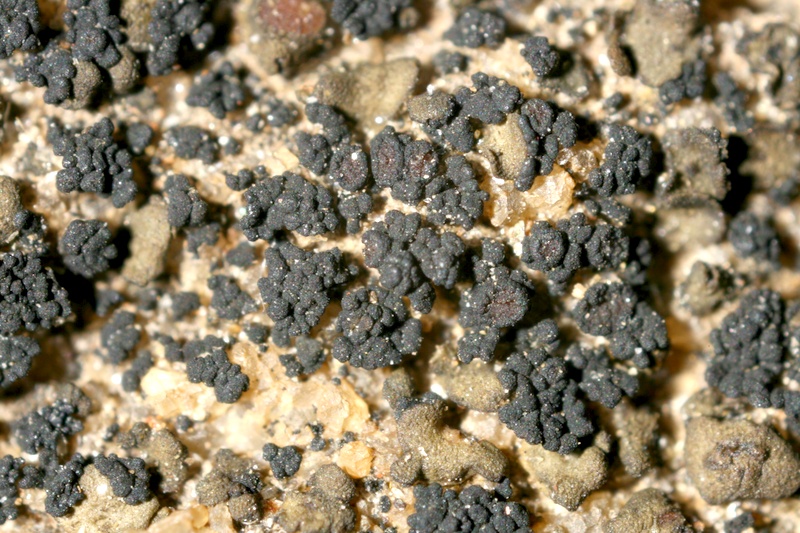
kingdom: Fungi
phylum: Ascomycota
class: Lichinomycetes
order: Lichinales
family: Lichinaceae
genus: Phloeopeccania
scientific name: Phloeopeccania
